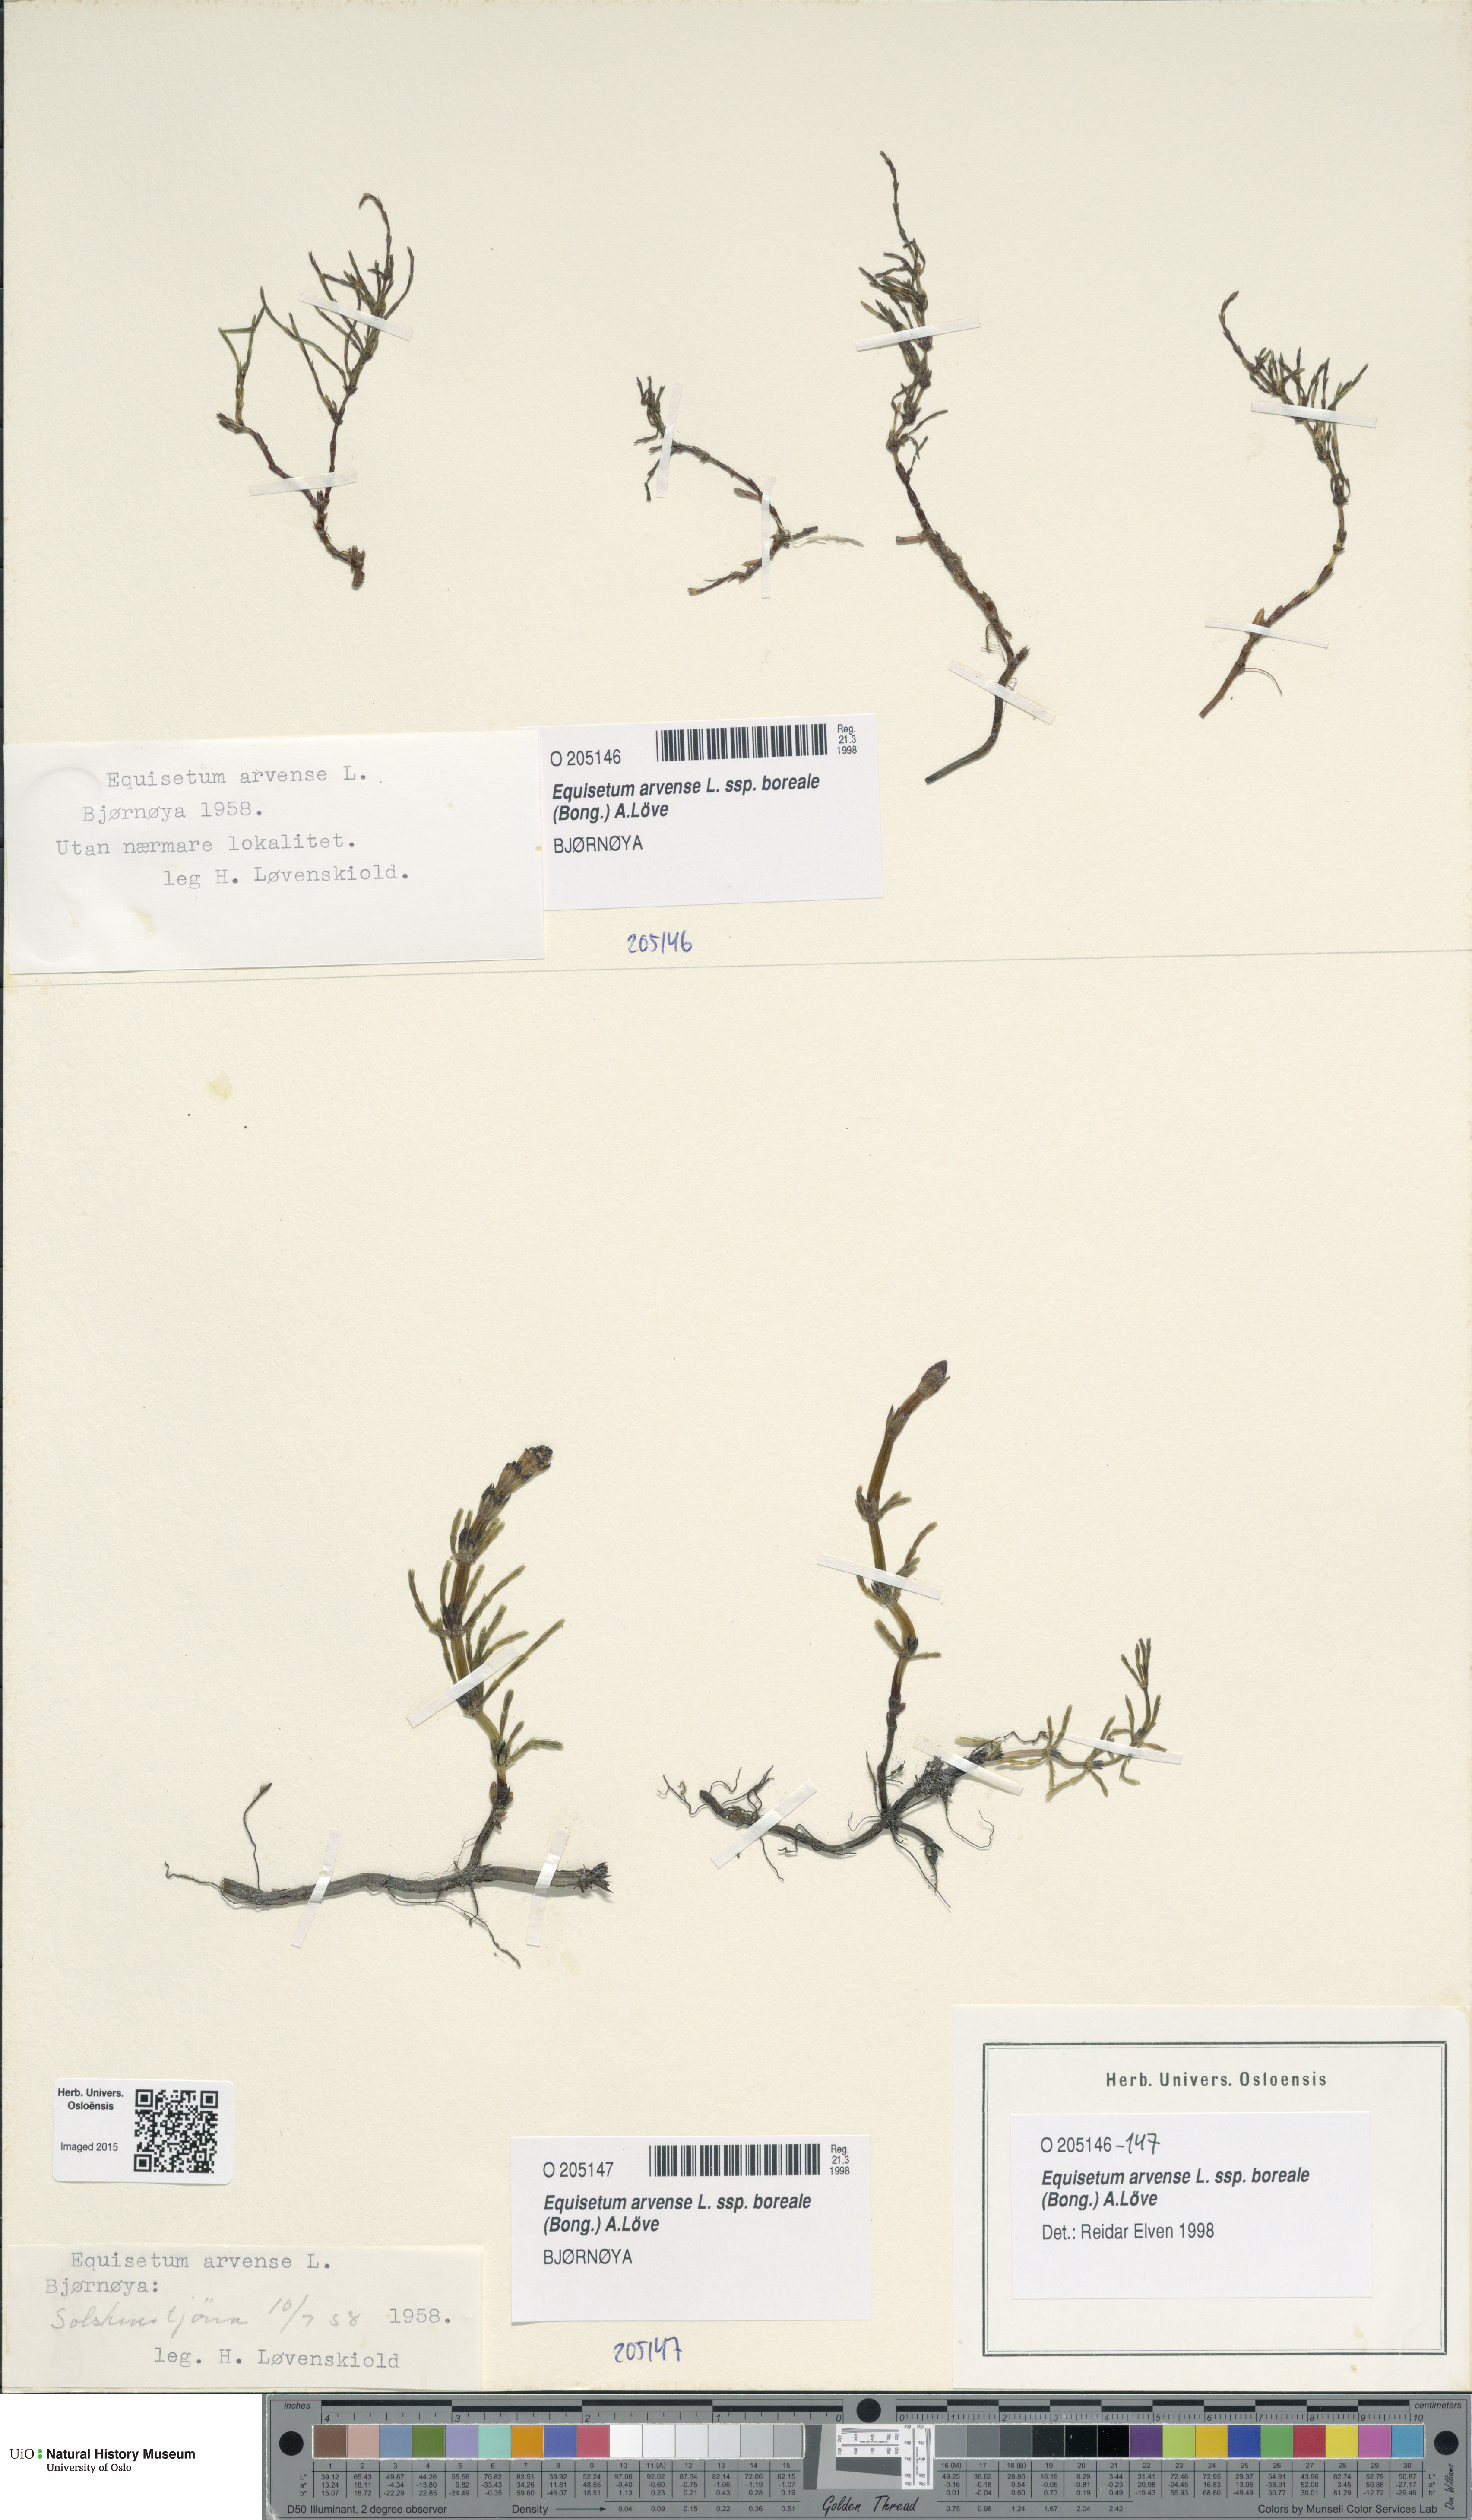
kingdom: Plantae
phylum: Tracheophyta
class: Polypodiopsida
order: Equisetales
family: Equisetaceae
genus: Equisetum
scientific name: Equisetum arvense
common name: Field horsetail
